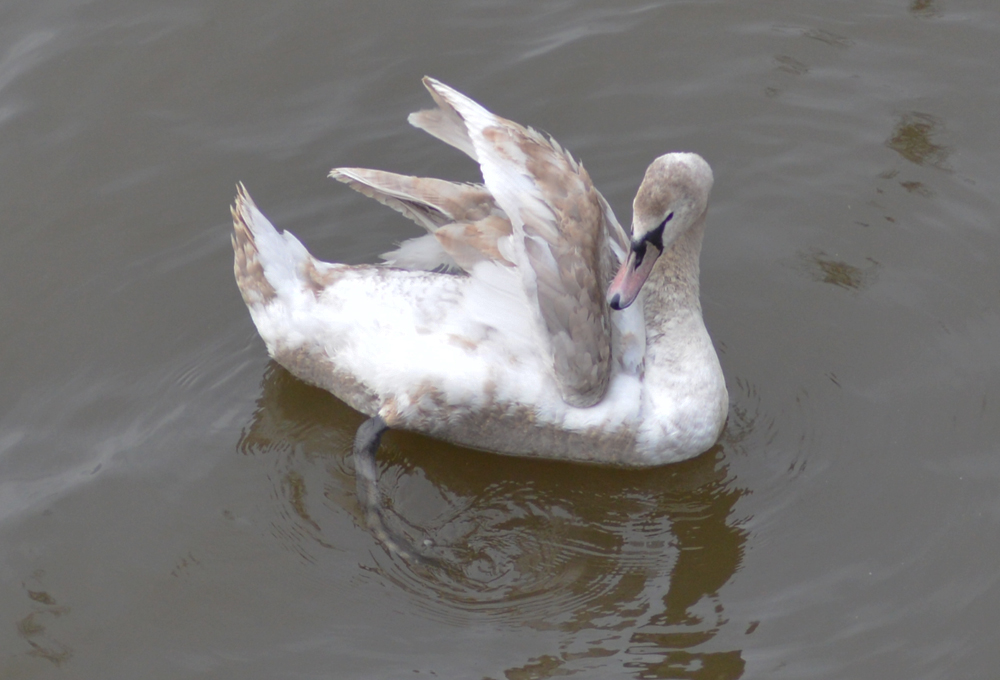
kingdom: Animalia
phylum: Chordata
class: Aves
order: Anseriformes
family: Anatidae
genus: Cygnus
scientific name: Cygnus olor
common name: Mute swan
